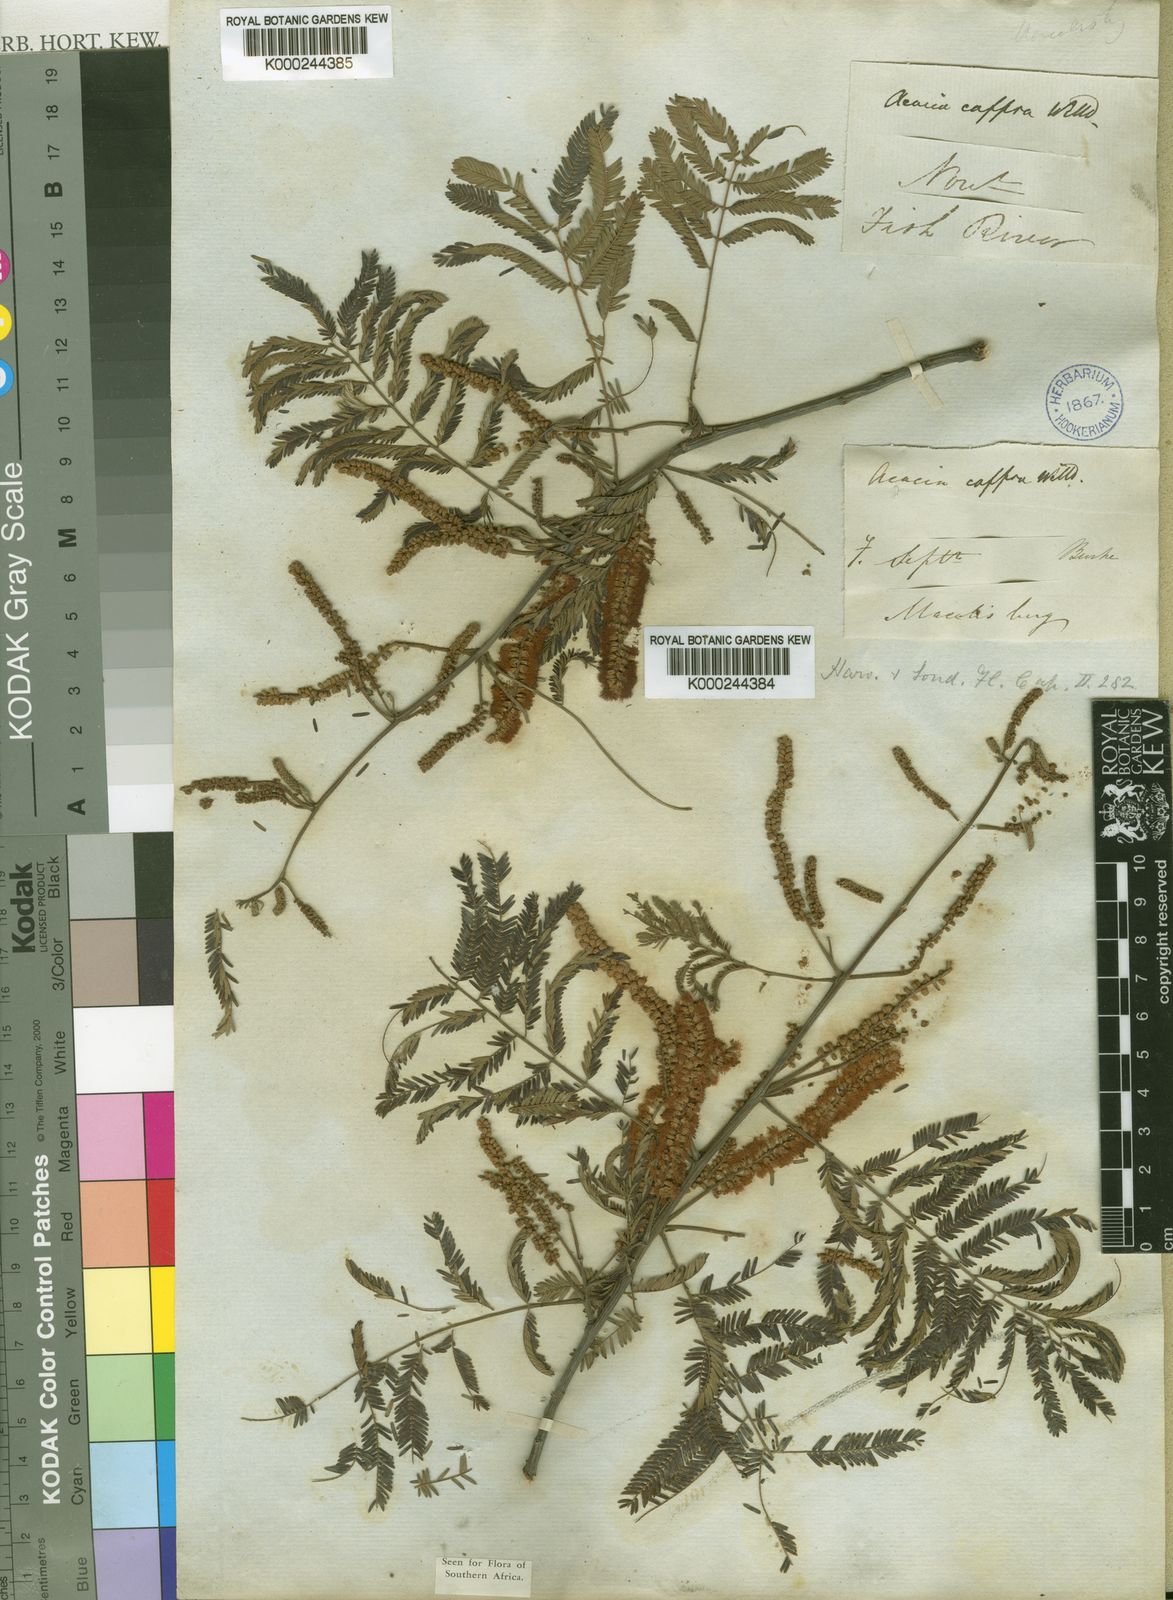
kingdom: Plantae
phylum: Tracheophyta
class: Magnoliopsida
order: Fabales
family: Fabaceae
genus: Senegalia
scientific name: Senegalia caffra
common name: Cat thorn
